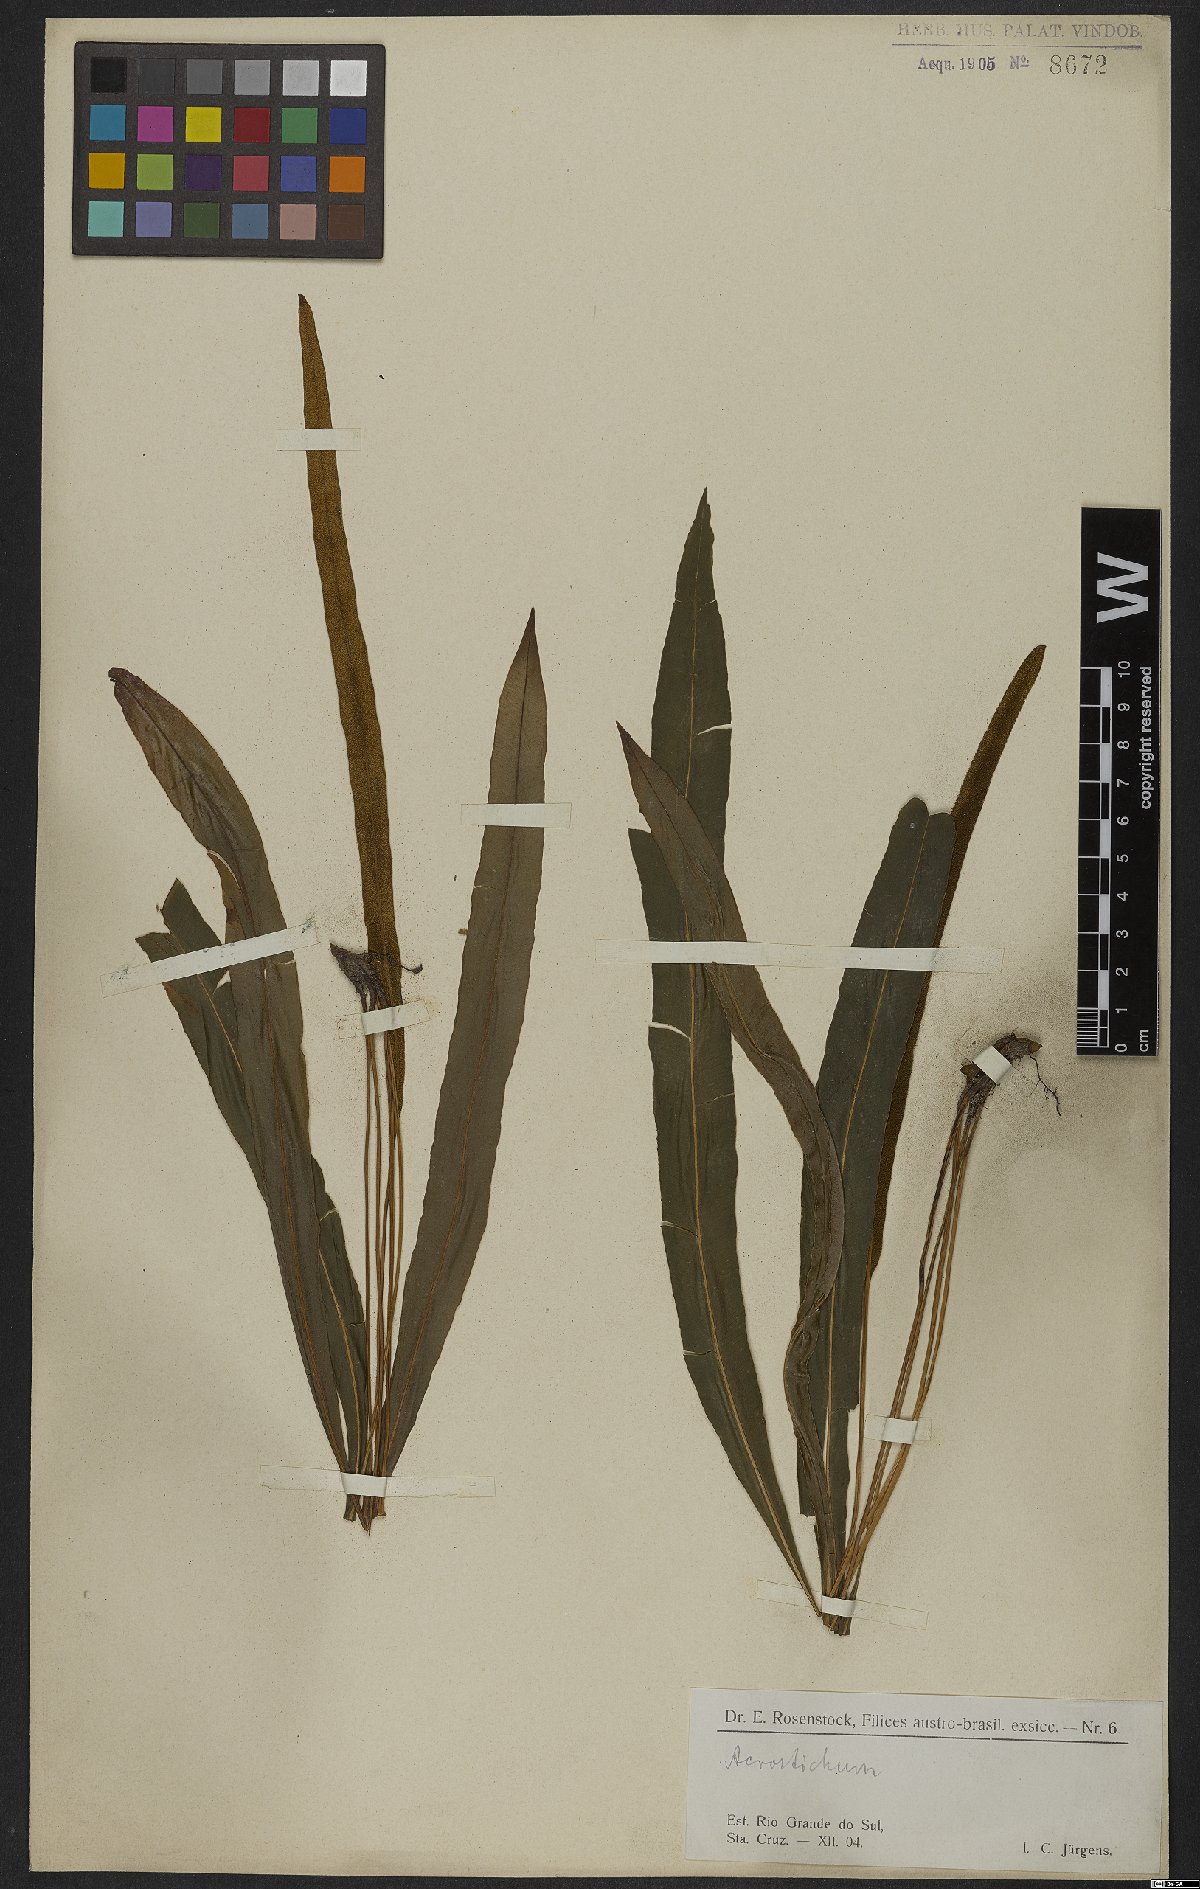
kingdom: Plantae
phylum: Tracheophyta
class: Polypodiopsida
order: Polypodiales
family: Dryopteridaceae
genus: Elaphoglossum
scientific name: Elaphoglossum
